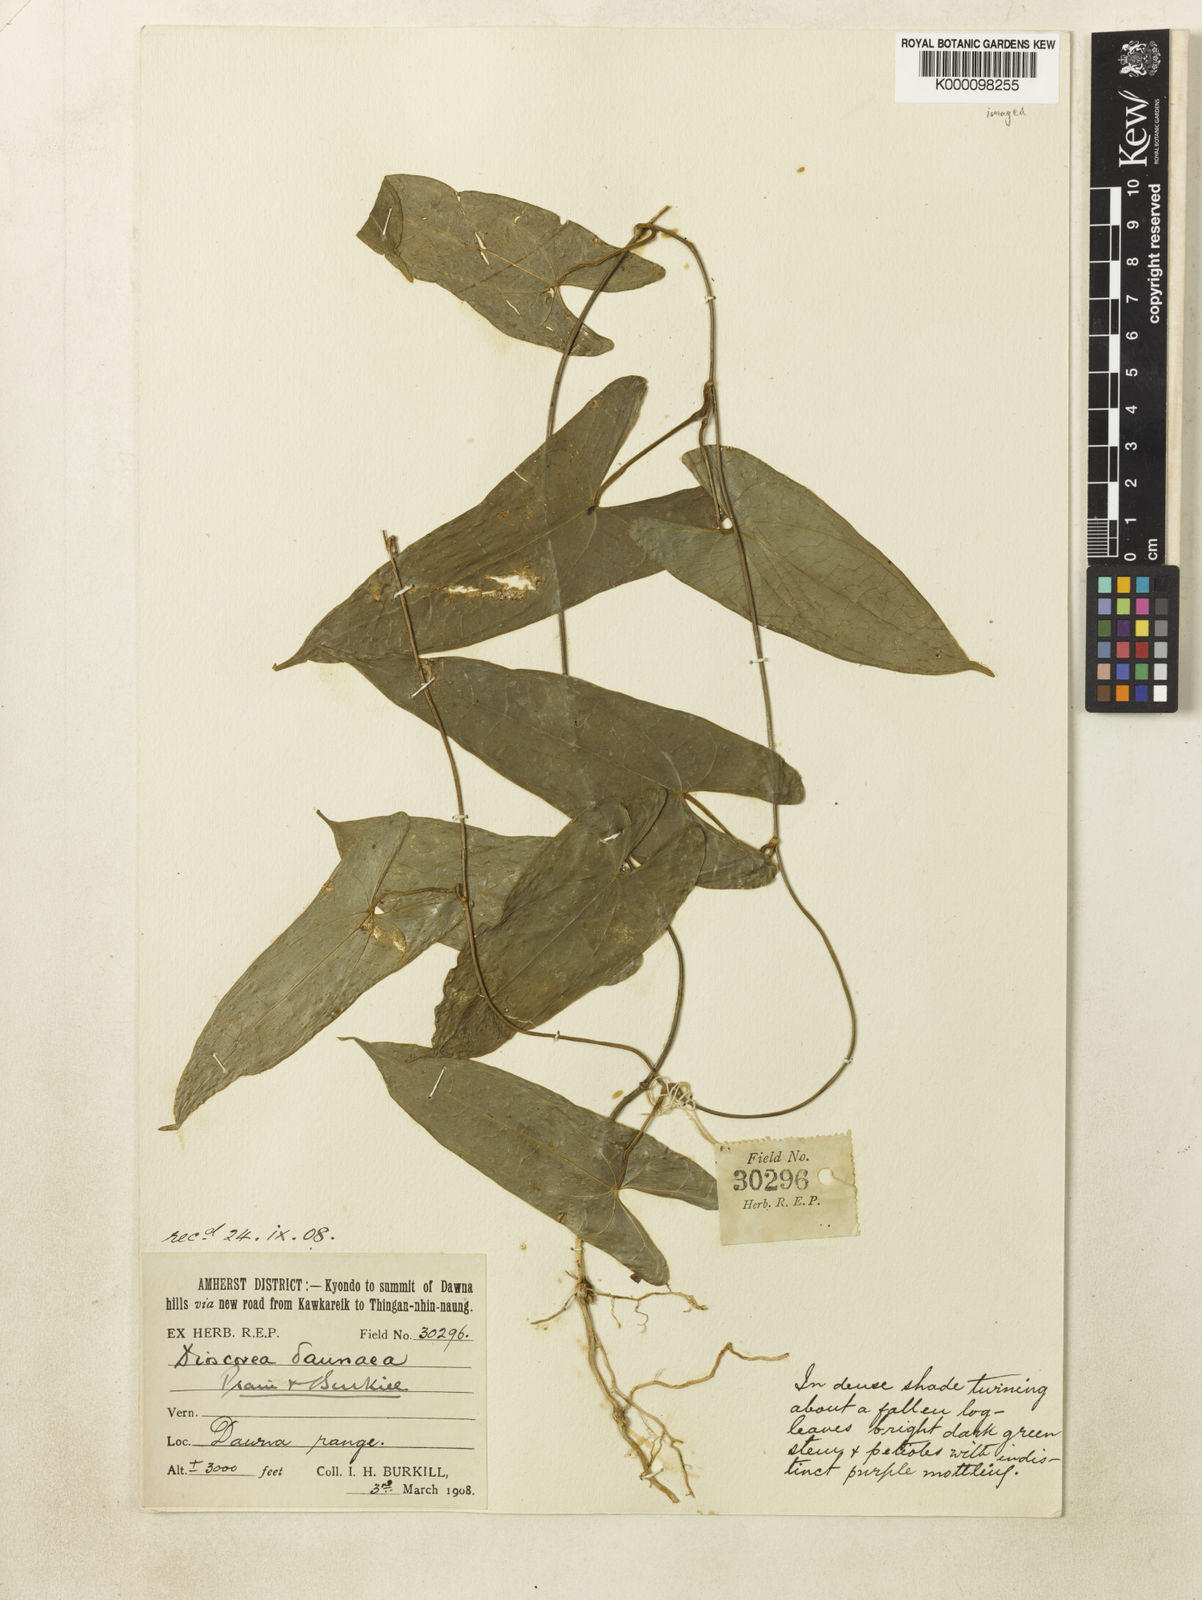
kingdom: Plantae
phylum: Tracheophyta
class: Liliopsida
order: Dioscoreales
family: Dioscoreaceae
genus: Dioscorea
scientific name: Dioscorea
